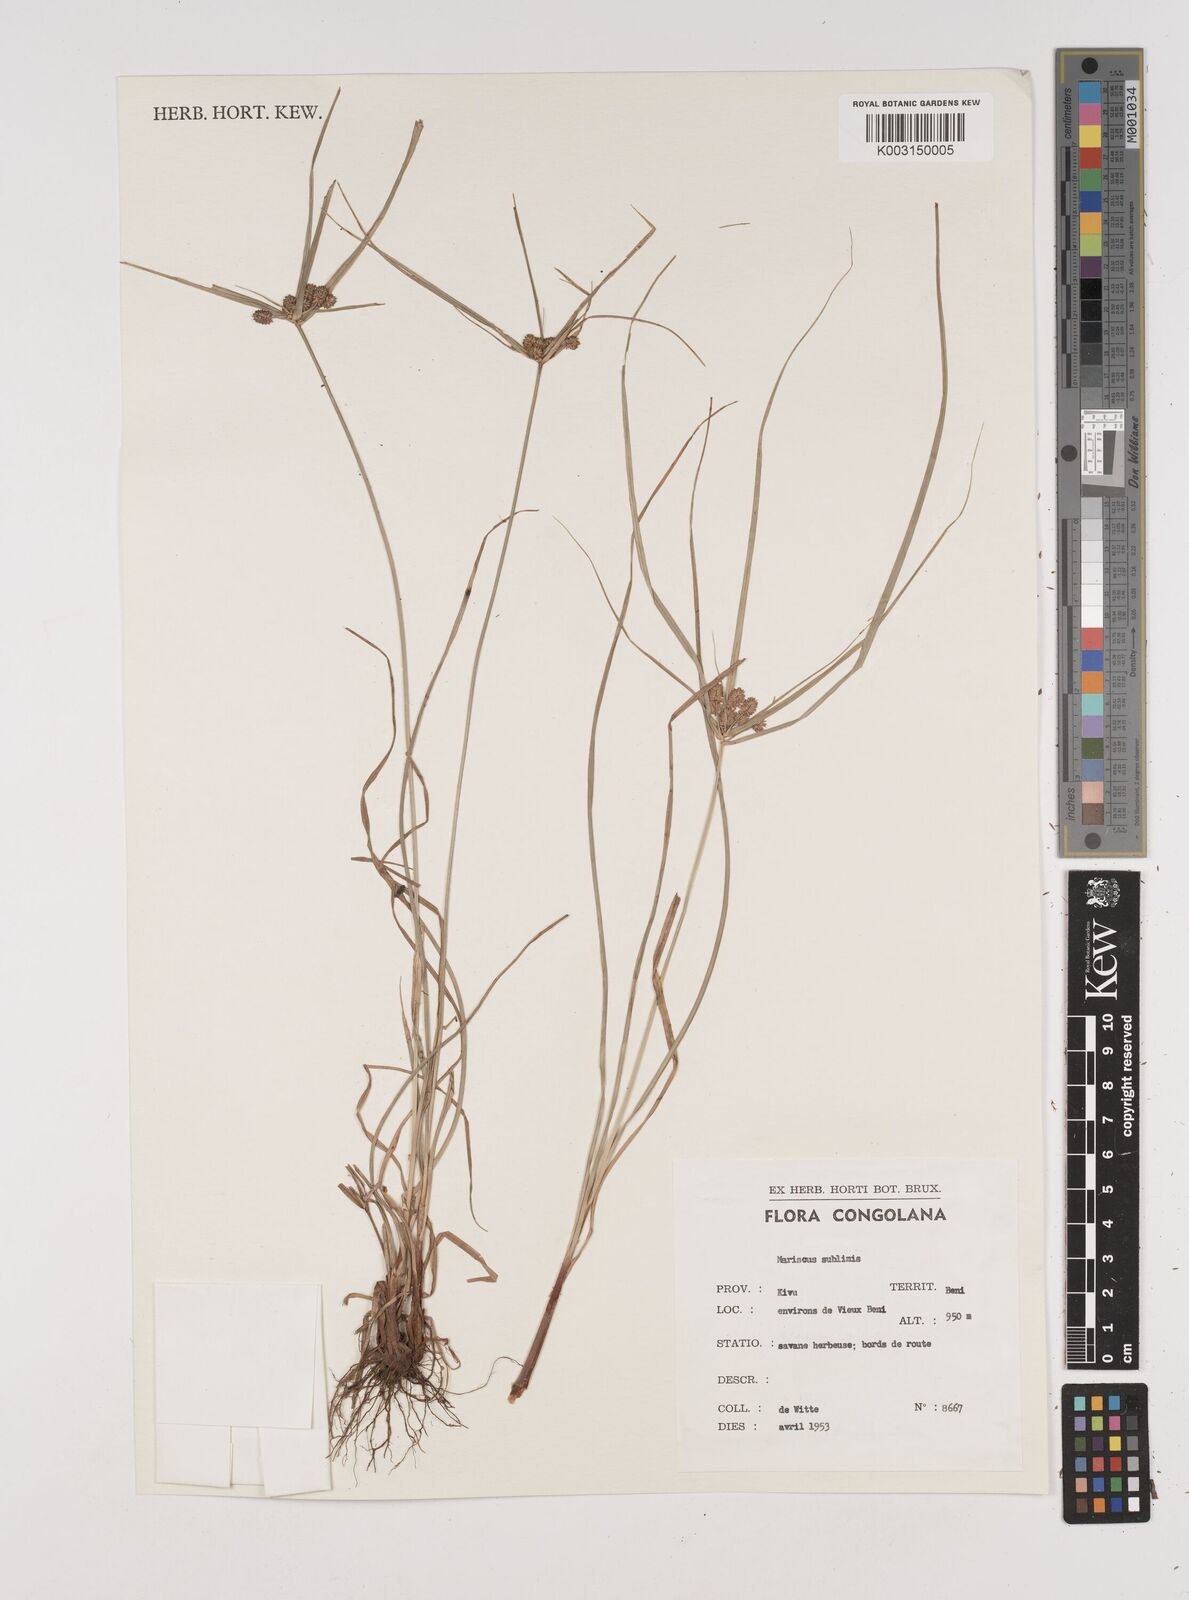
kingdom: Plantae
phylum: Tracheophyta
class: Liliopsida
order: Poales
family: Cyperaceae
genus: Cyperus
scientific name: Cyperus cyperoides
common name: Pacific island flat sedge
